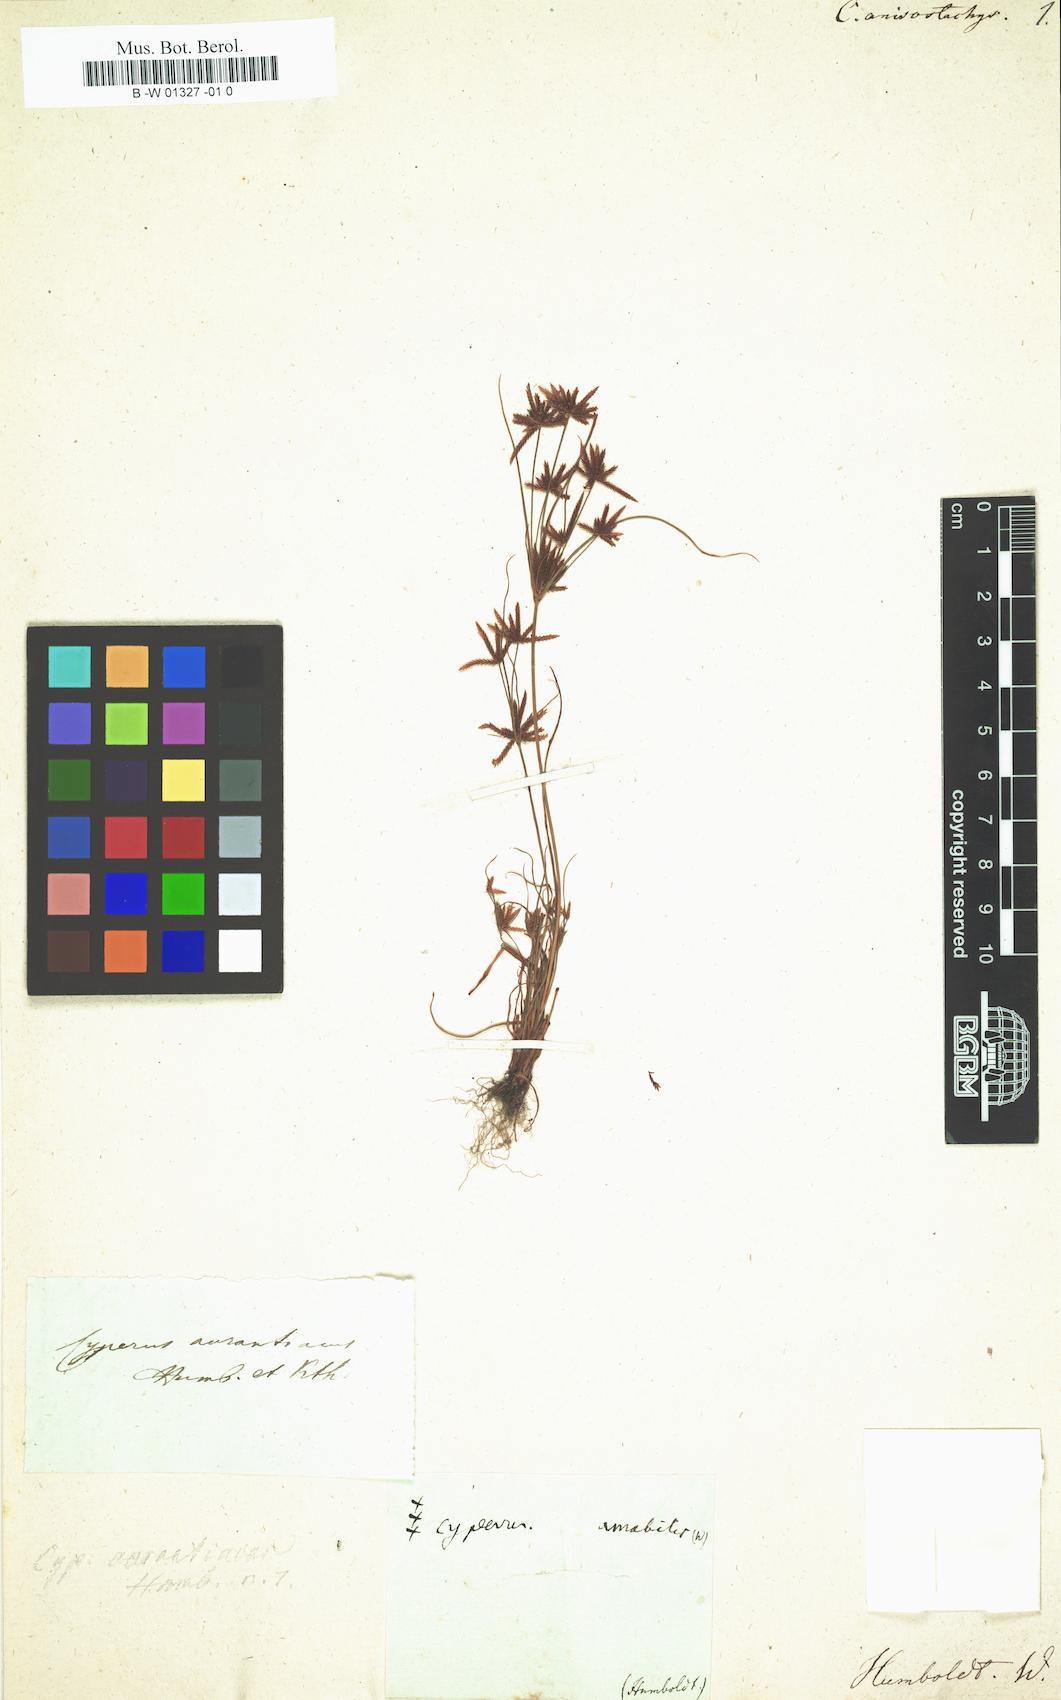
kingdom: Plantae
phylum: Tracheophyta
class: Liliopsida
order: Poales
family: Cyperaceae
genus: Cyperus
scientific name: Cyperus amabilis
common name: Foothill flat sedge
